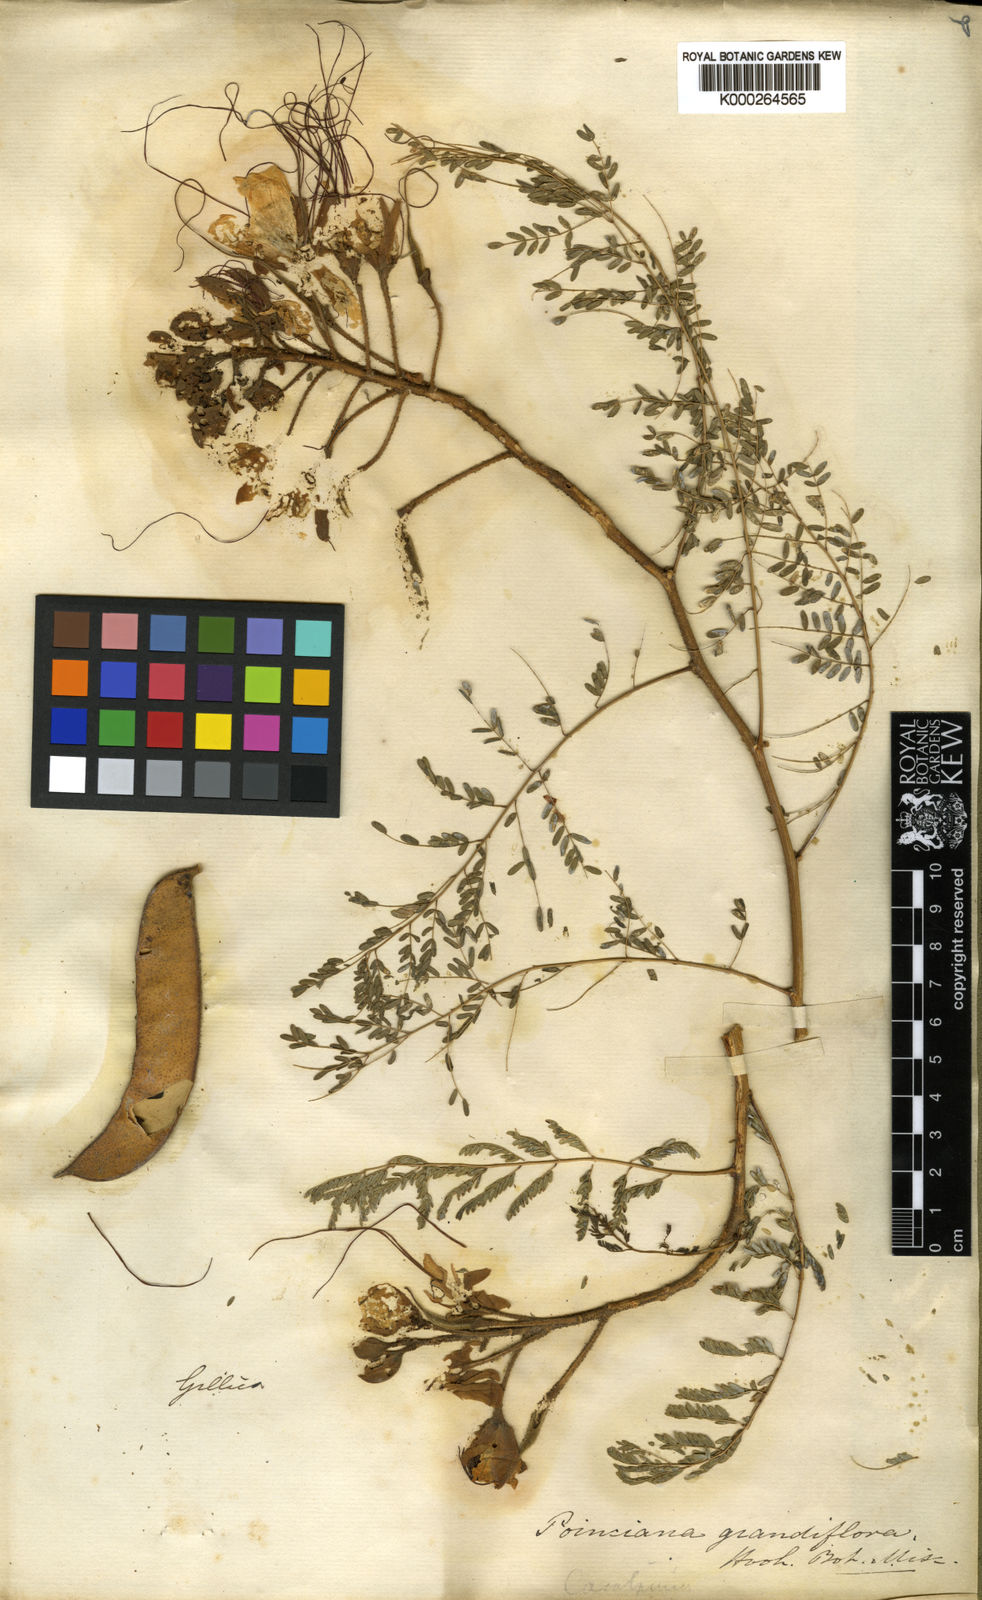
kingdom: Plantae
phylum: Tracheophyta
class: Magnoliopsida
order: Fabales
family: Fabaceae
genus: Erythrostemon
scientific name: Erythrostemon gilliesii
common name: Bird-of-paradise shrub
